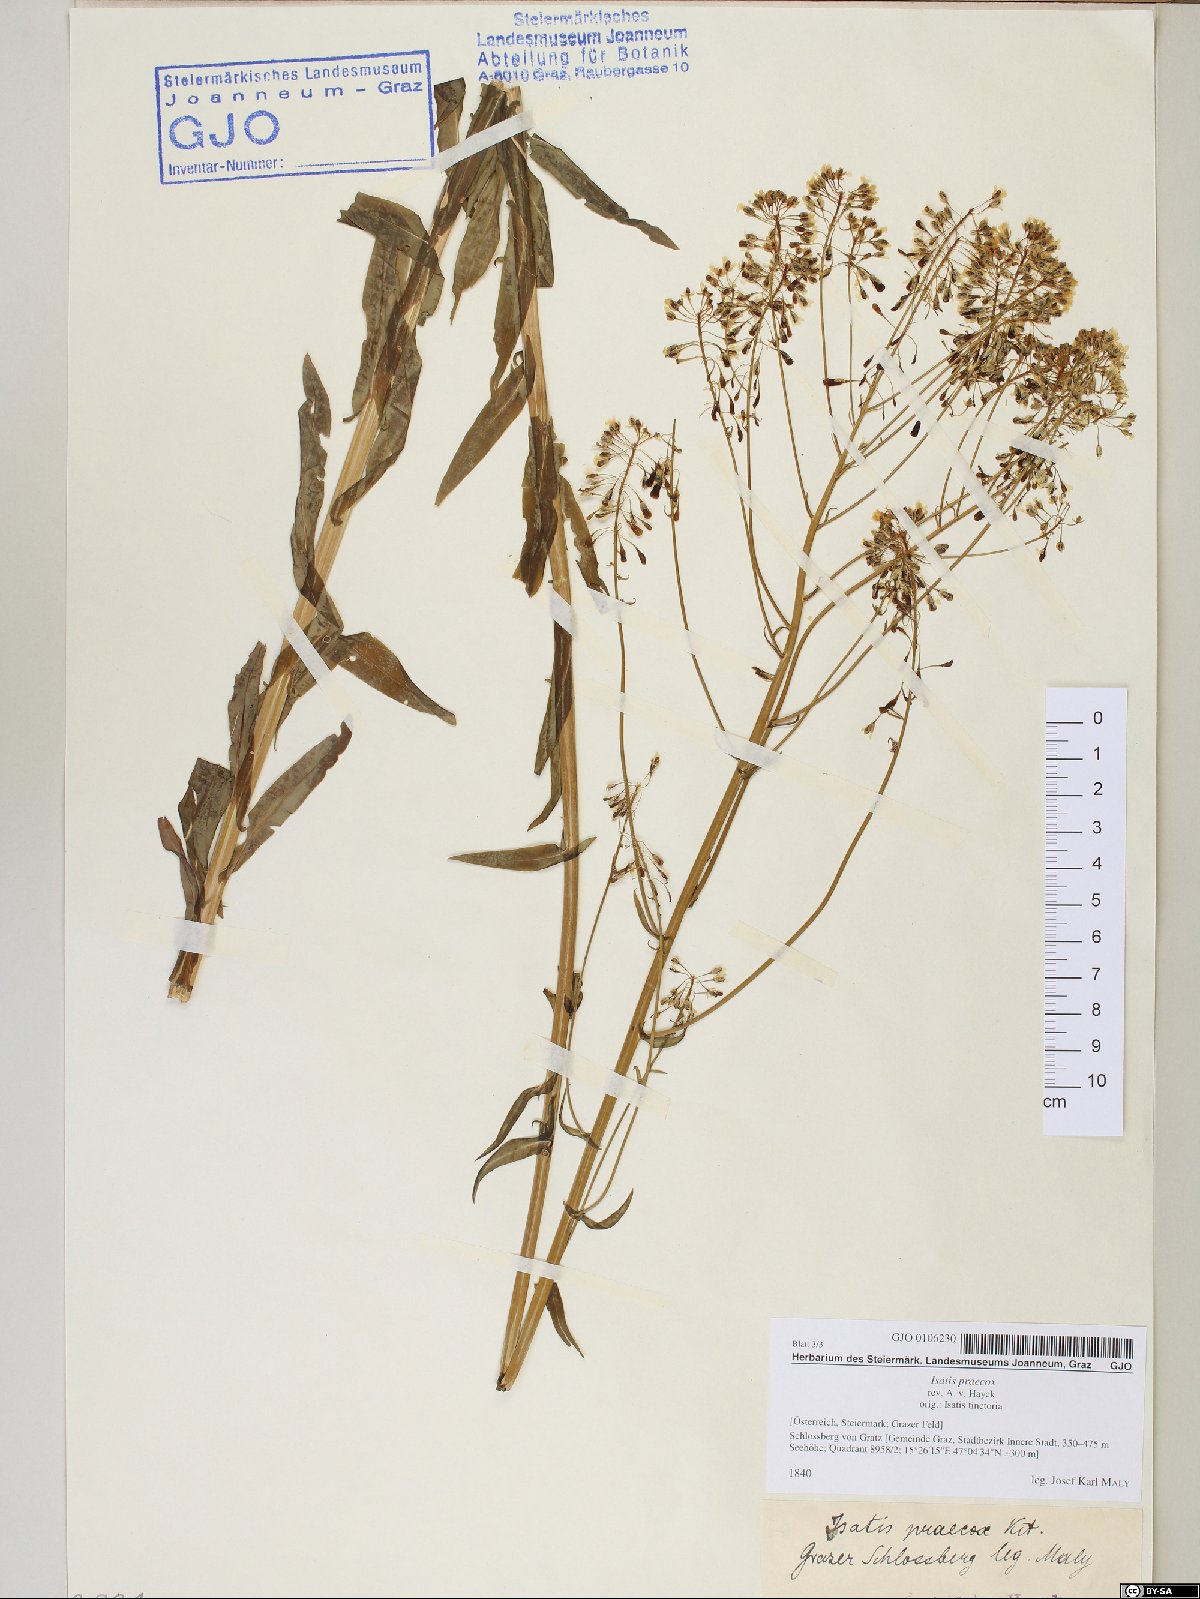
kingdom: Plantae
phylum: Tracheophyta
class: Magnoliopsida
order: Brassicales
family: Brassicaceae
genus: Isatis
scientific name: Isatis tinctoria
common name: Woad
